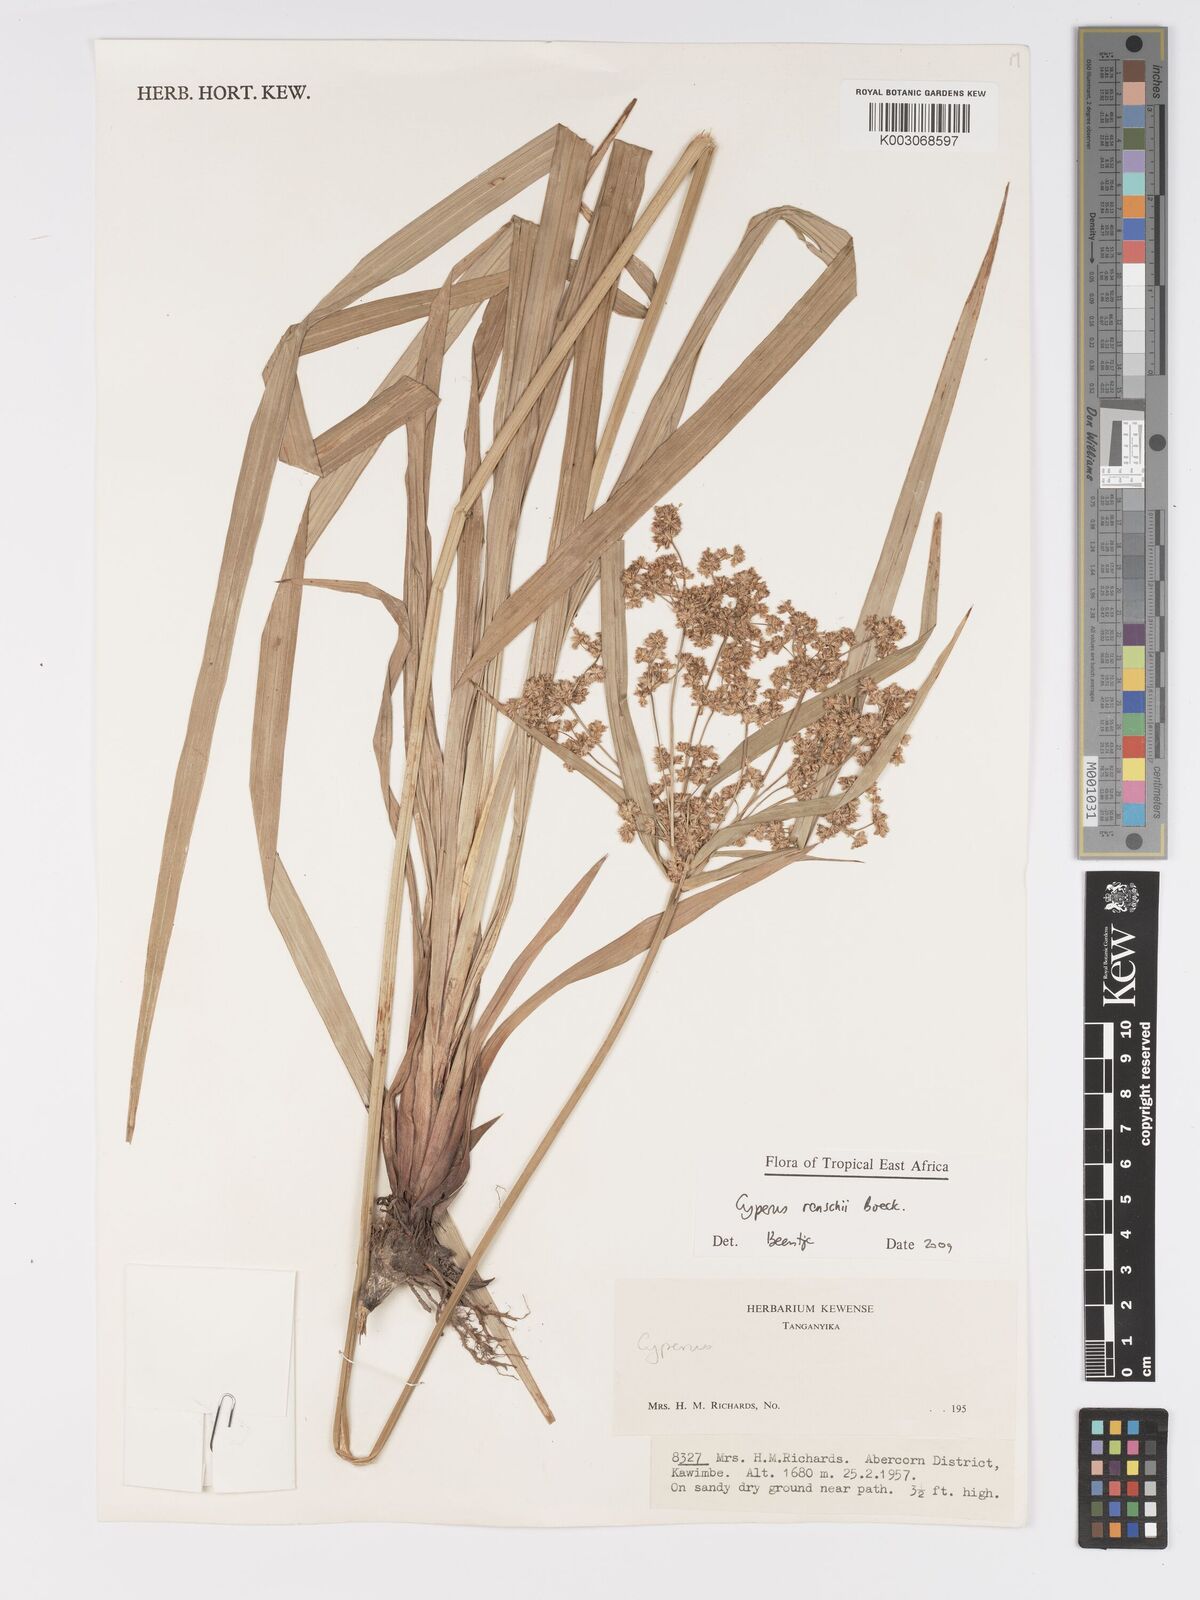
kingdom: Plantae
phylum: Tracheophyta
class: Liliopsida
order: Poales
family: Cyperaceae
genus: Cyperus
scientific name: Cyperus renschii
